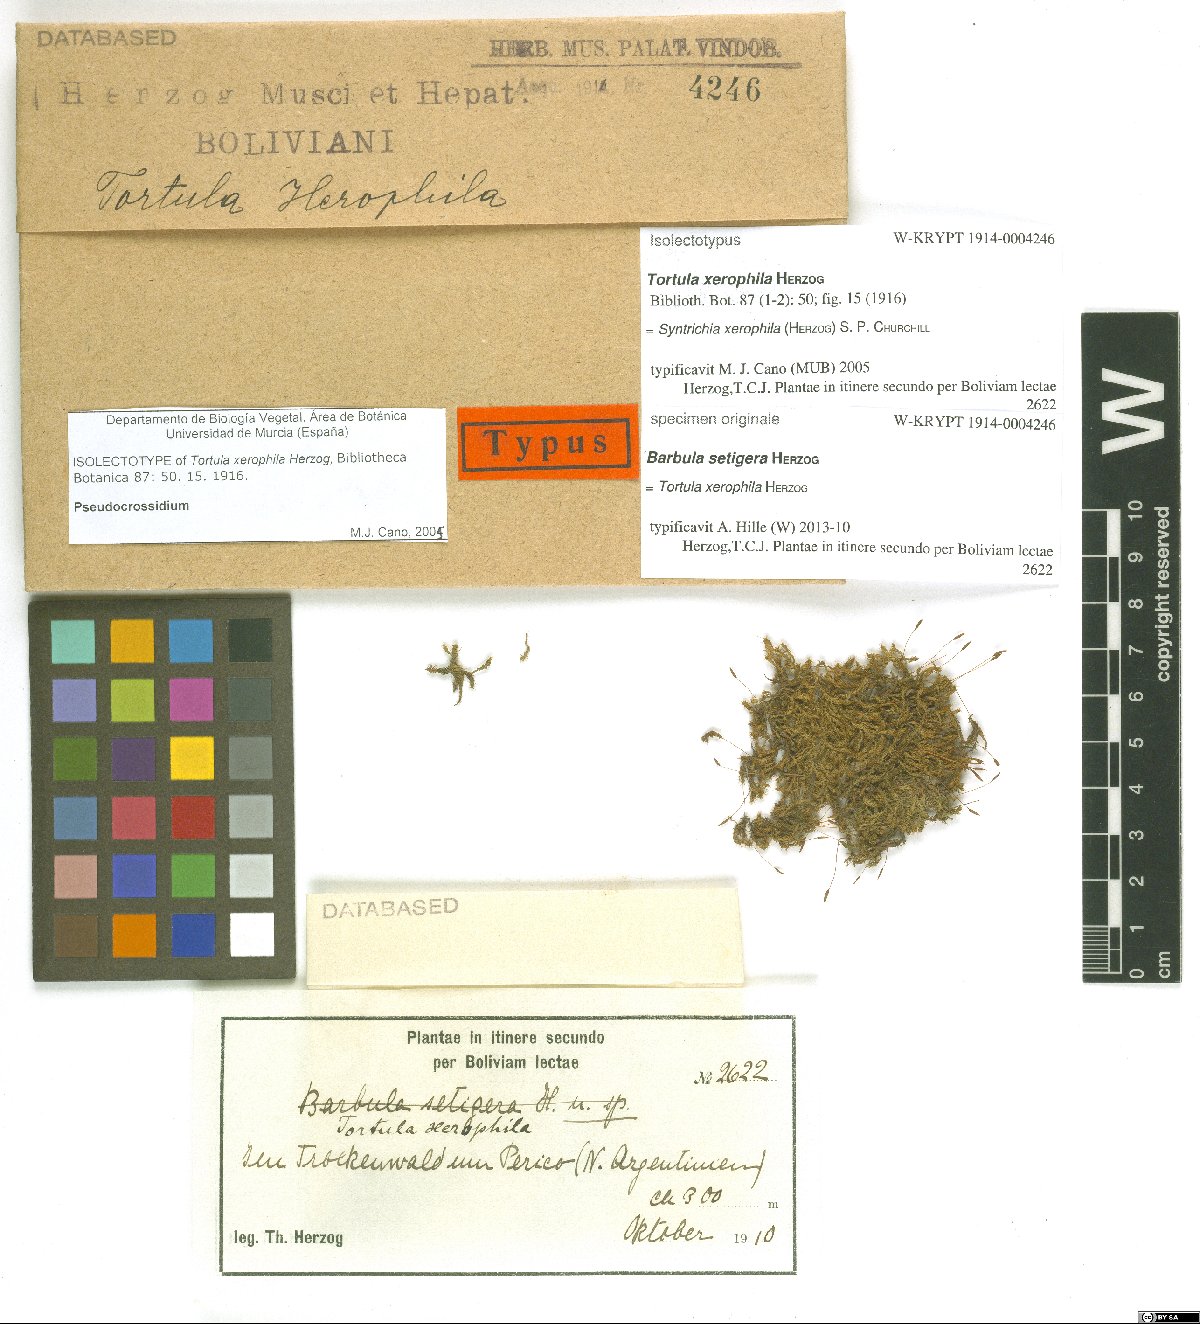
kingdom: Plantae
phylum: Bryophyta
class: Bryopsida
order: Pottiales
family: Pottiaceae
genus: Pseudocrossidium
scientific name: Pseudocrossidium arenicola
